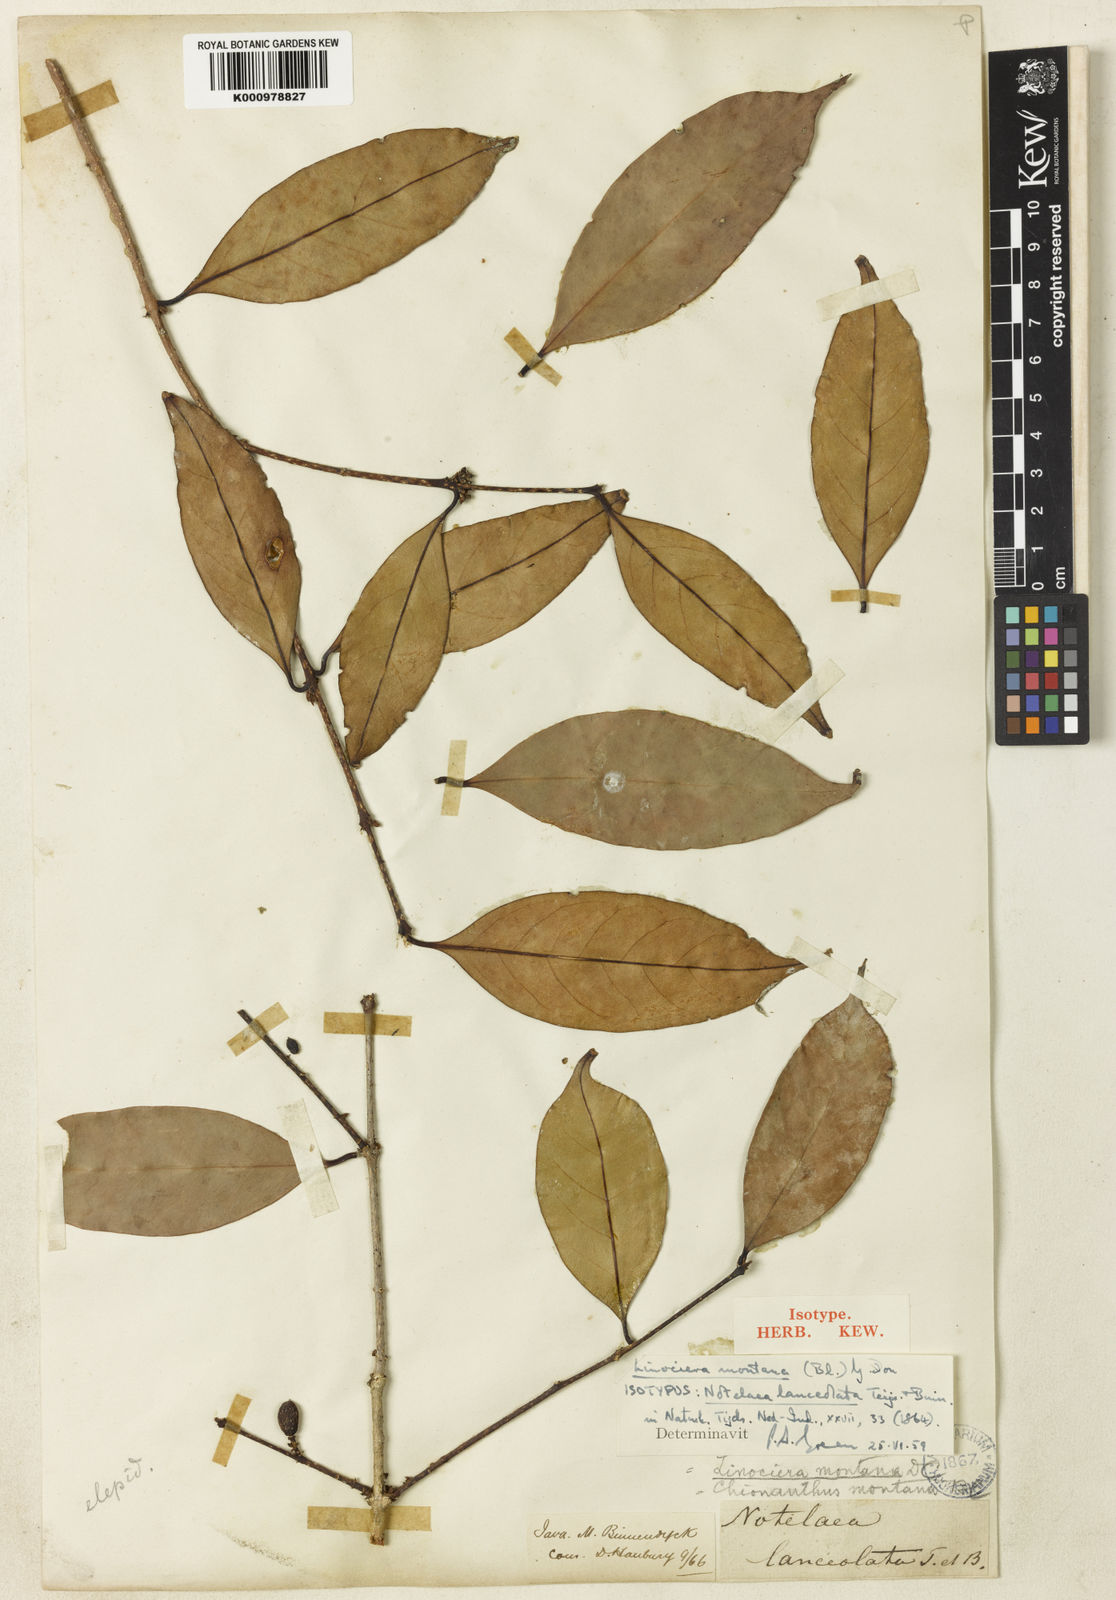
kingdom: Plantae
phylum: Tracheophyta
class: Magnoliopsida
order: Lamiales
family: Oleaceae
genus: Chionanthus
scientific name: Chionanthus montanus
